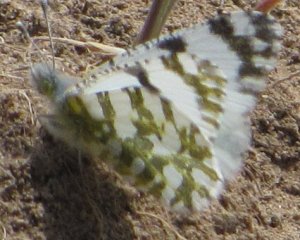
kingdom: Animalia
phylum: Arthropoda
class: Insecta
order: Lepidoptera
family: Pieridae
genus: Euchloe
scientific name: Euchloe lotta
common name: Desert Marble
